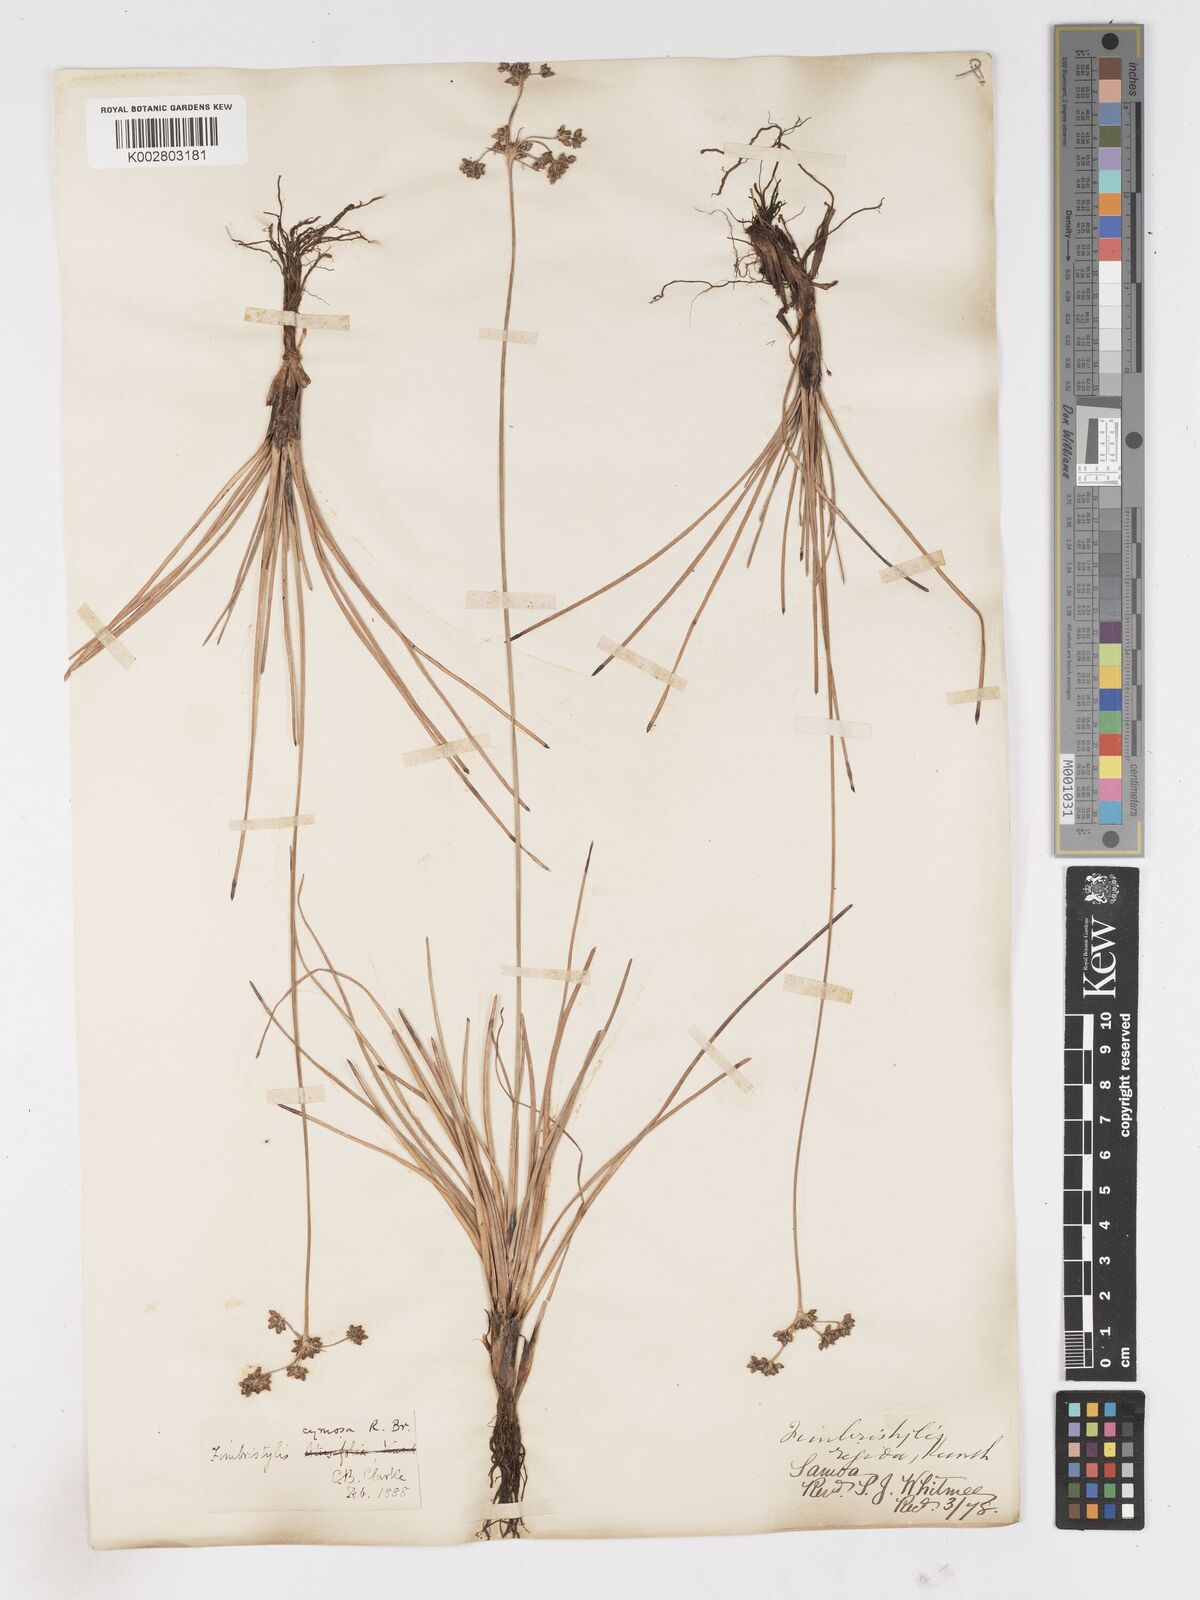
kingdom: Plantae
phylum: Tracheophyta
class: Liliopsida
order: Poales
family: Cyperaceae
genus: Fimbristylis
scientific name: Fimbristylis cymosa
